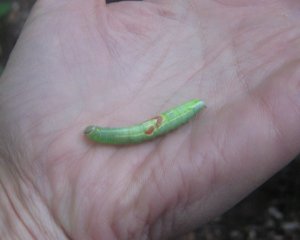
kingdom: Animalia
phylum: Arthropoda
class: Insecta
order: Lepidoptera
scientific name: Lepidoptera
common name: Butterflies
